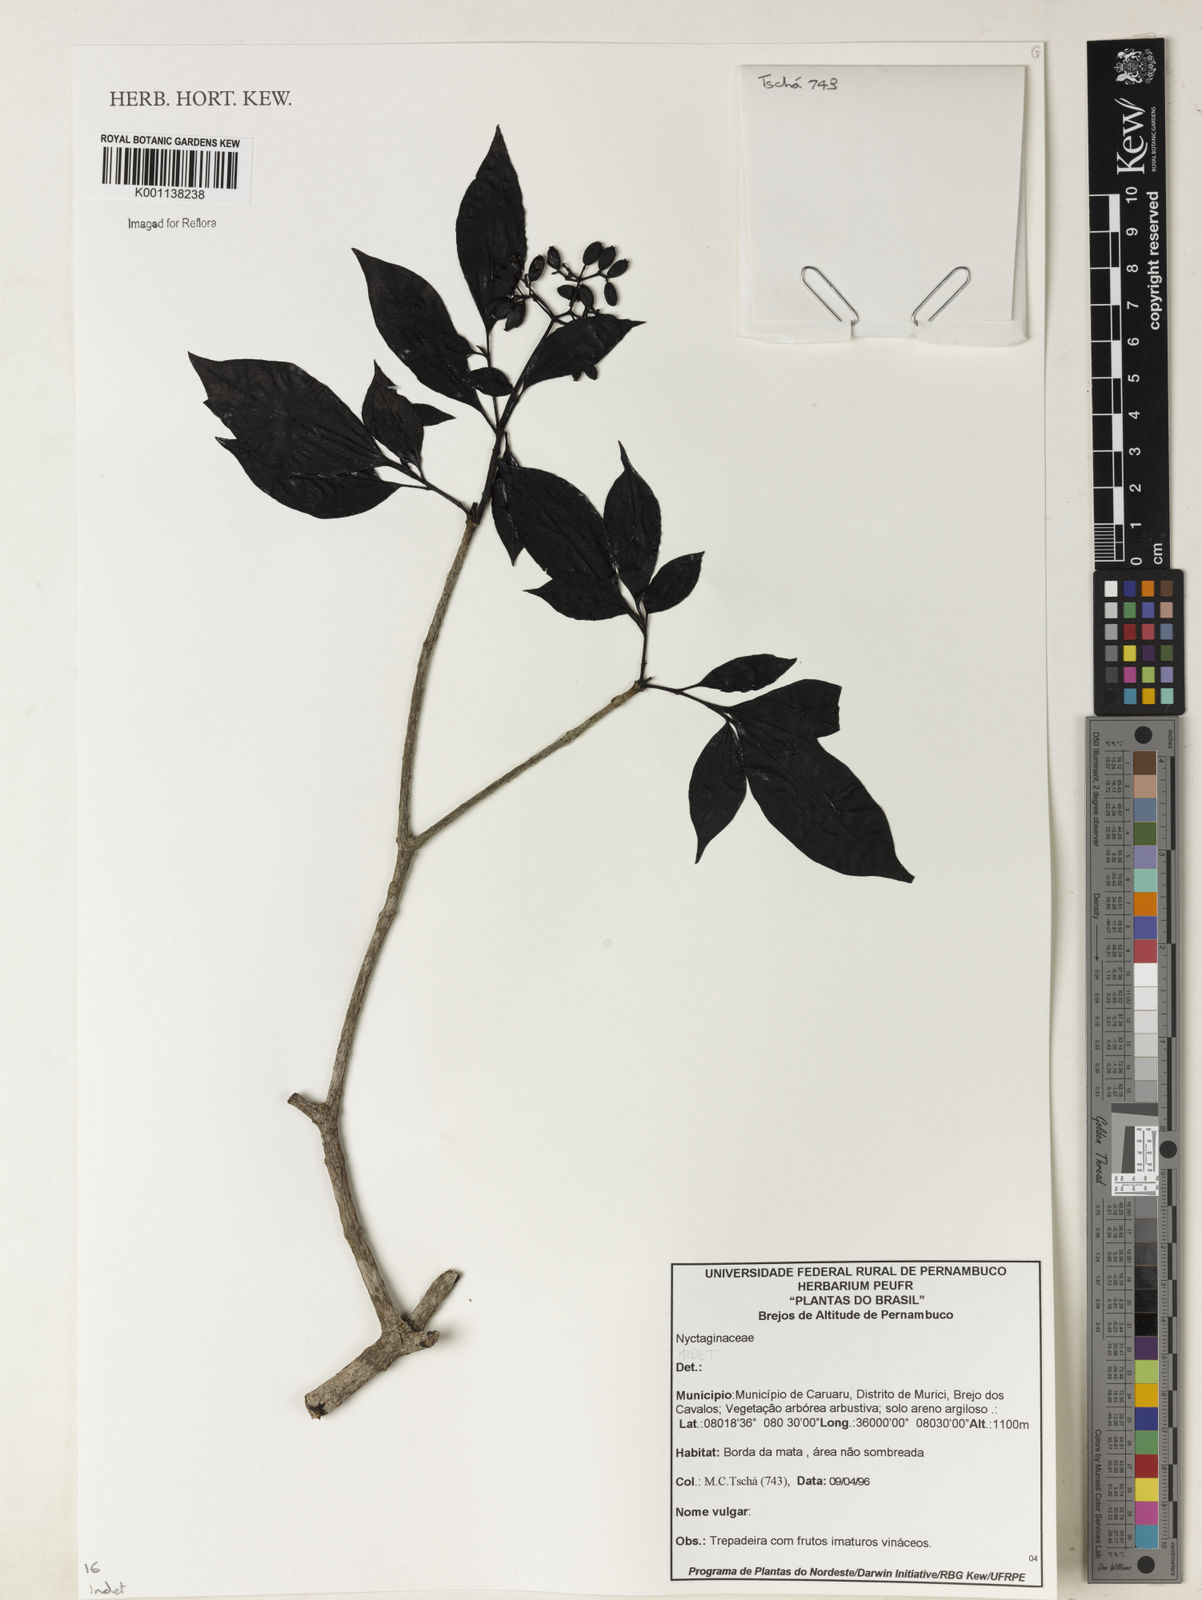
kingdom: Plantae
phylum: Tracheophyta
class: Magnoliopsida
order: Caryophyllales
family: Nyctaginaceae
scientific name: Nyctaginaceae
